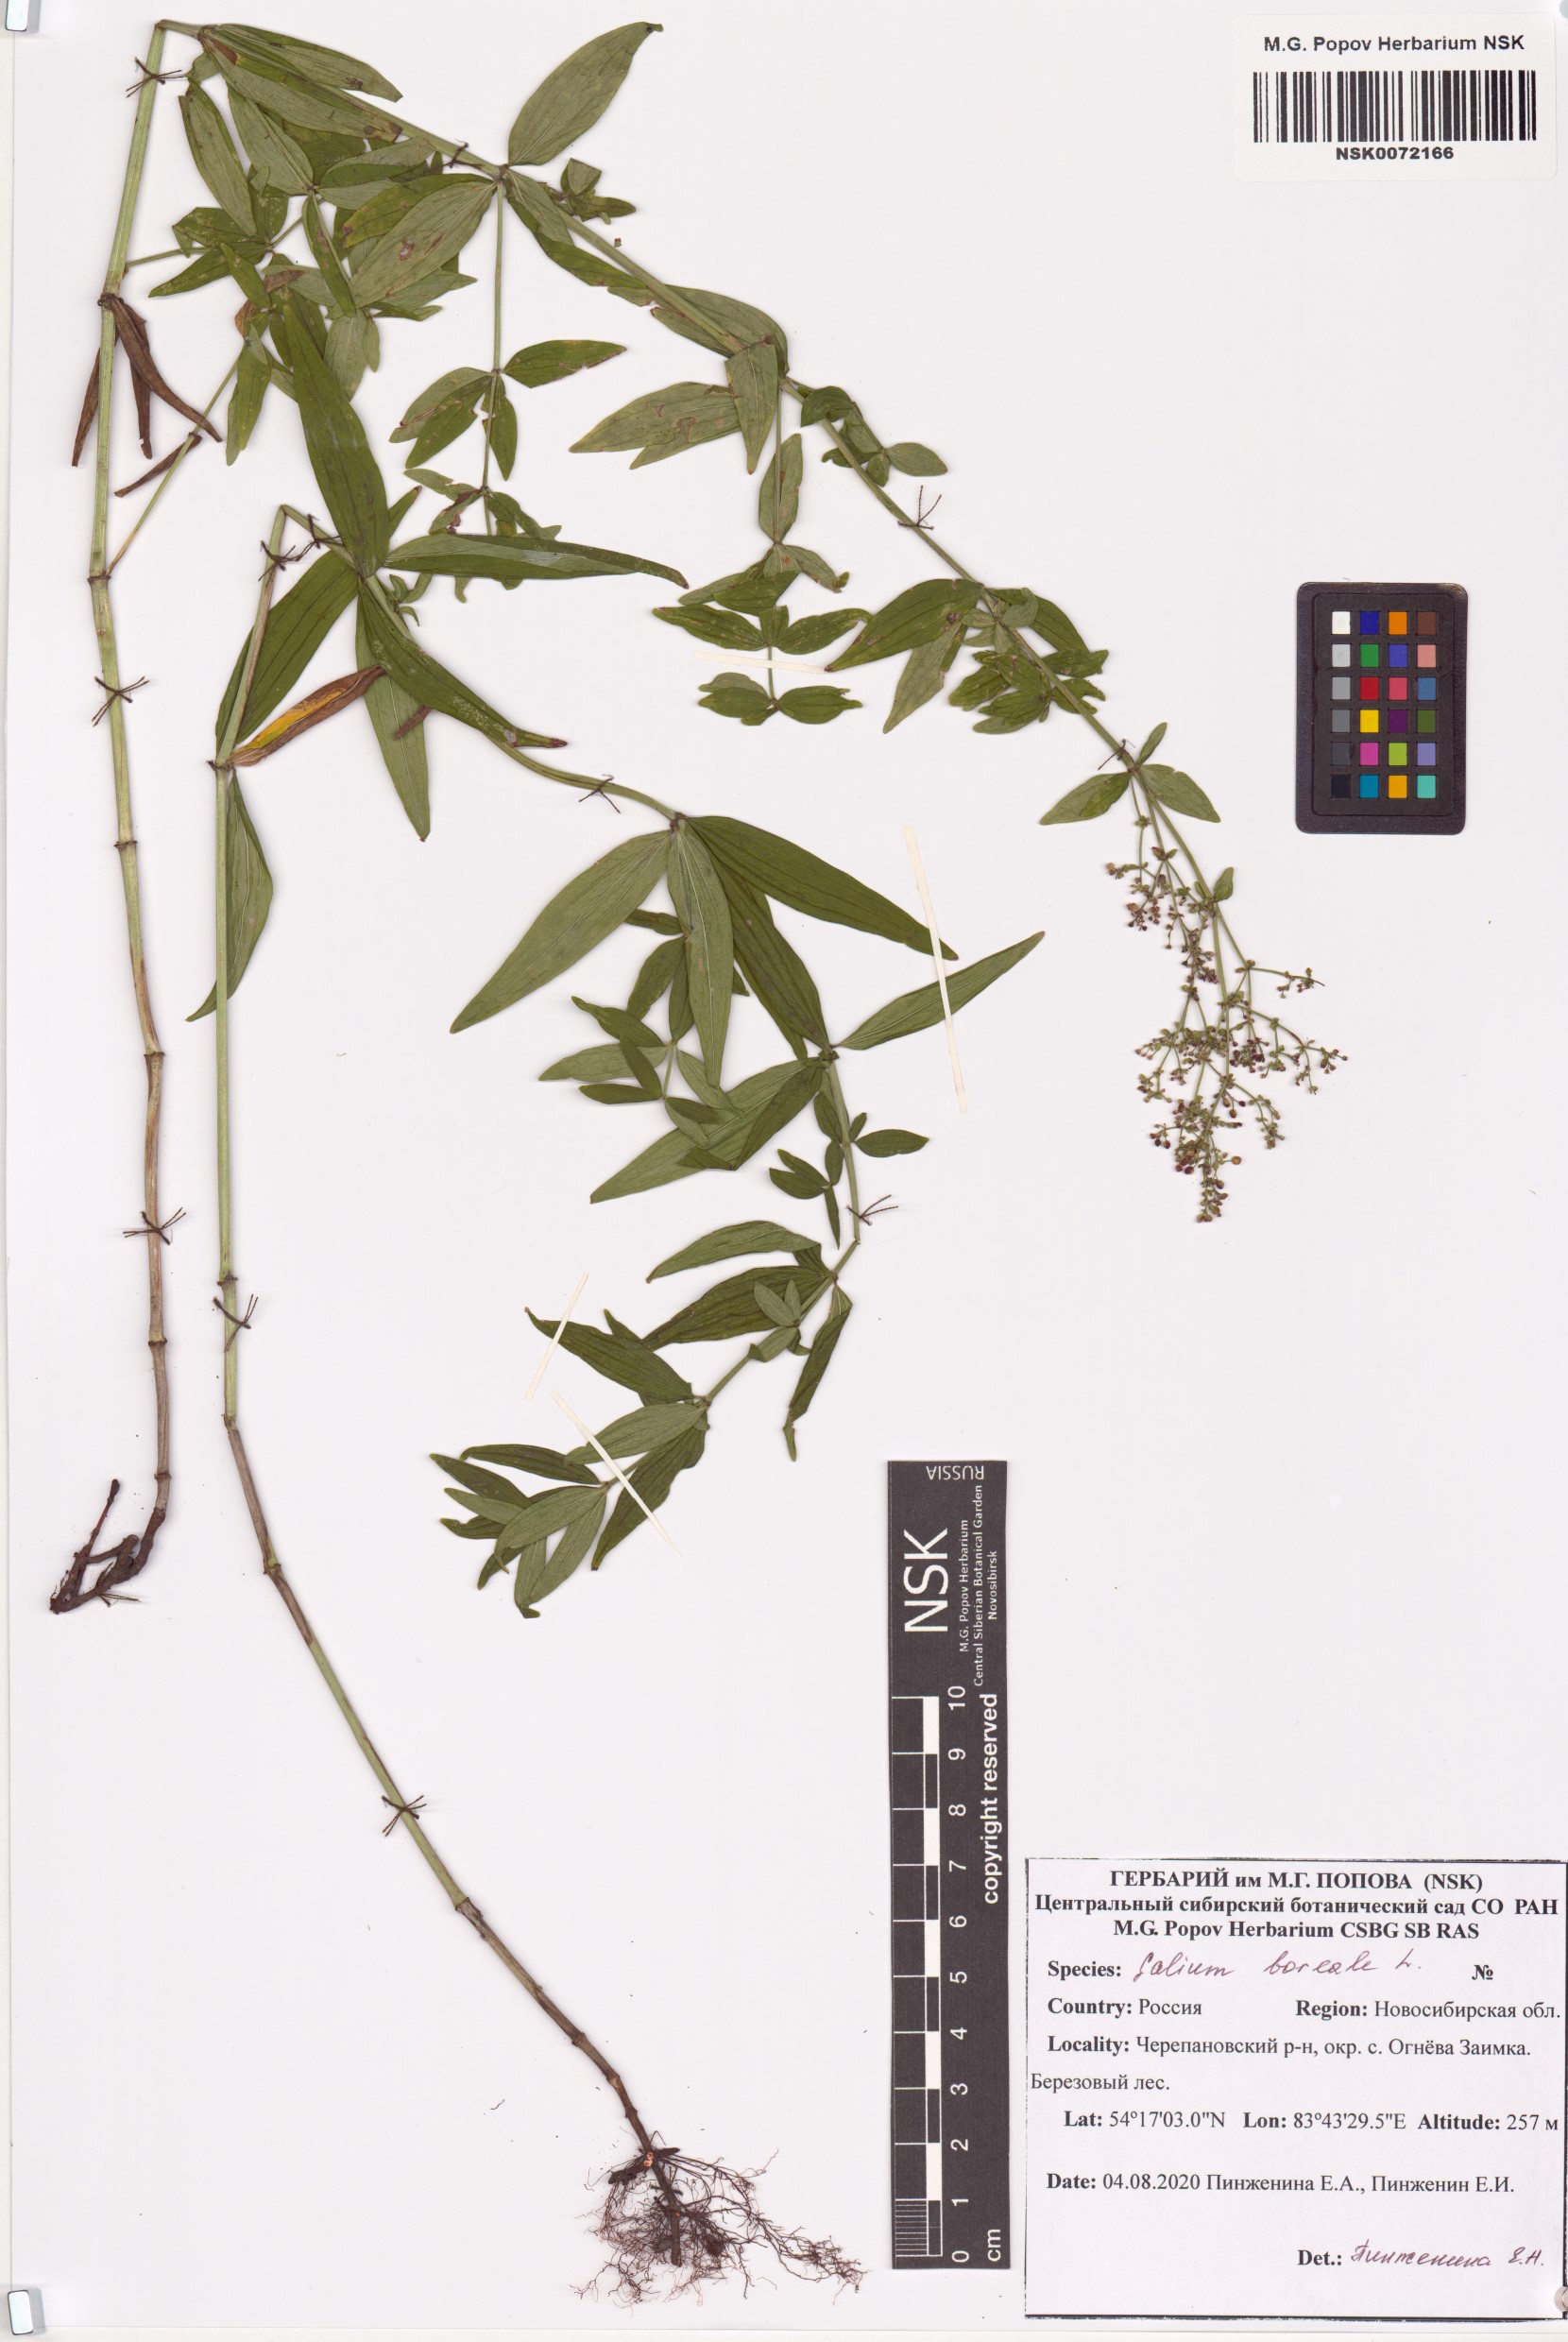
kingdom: Plantae
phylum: Tracheophyta
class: Magnoliopsida
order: Gentianales
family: Rubiaceae
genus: Galium
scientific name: Galium boreale
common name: Northern bedstraw
